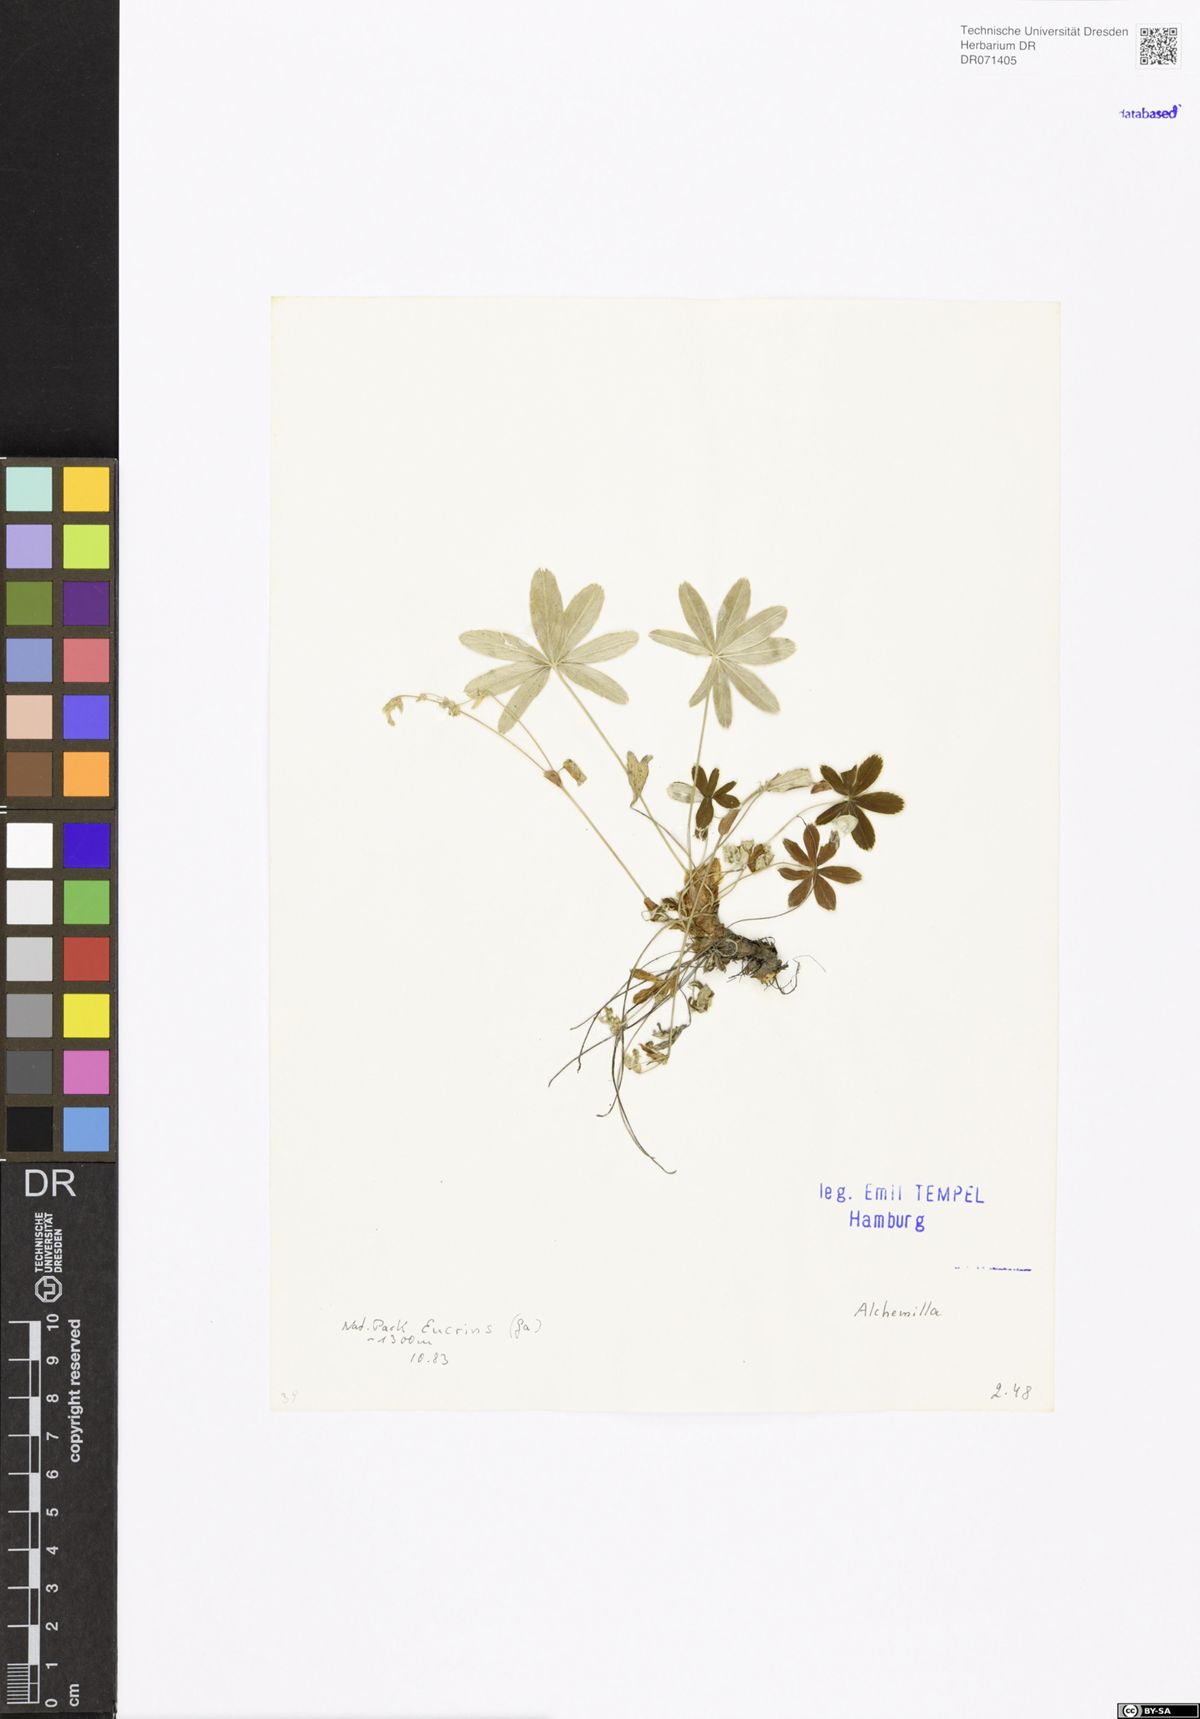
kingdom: Plantae
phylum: Tracheophyta
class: Magnoliopsida
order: Rosales
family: Rosaceae
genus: Alchemilla
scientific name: Alchemilla
